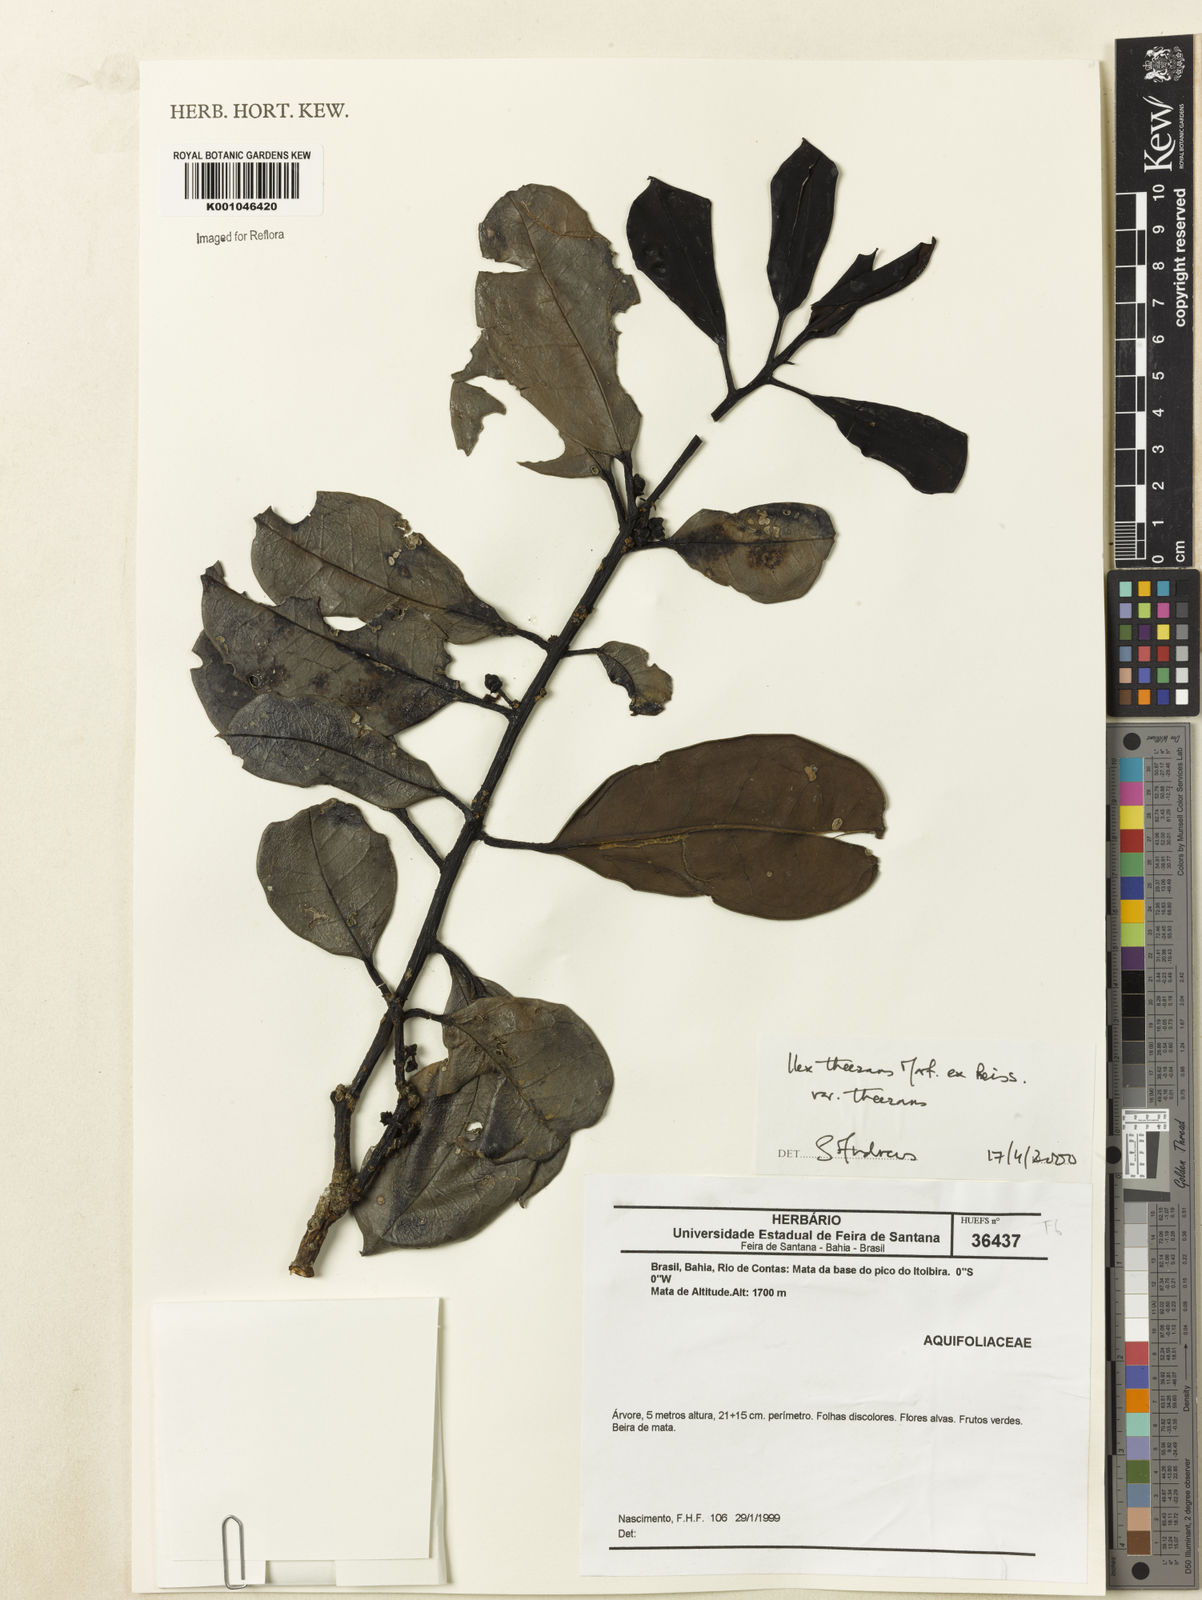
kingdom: Plantae
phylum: Tracheophyta
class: Magnoliopsida
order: Aquifoliales
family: Aquifoliaceae
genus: Ilex
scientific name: Ilex paraguariensis
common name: Paraguay tea
